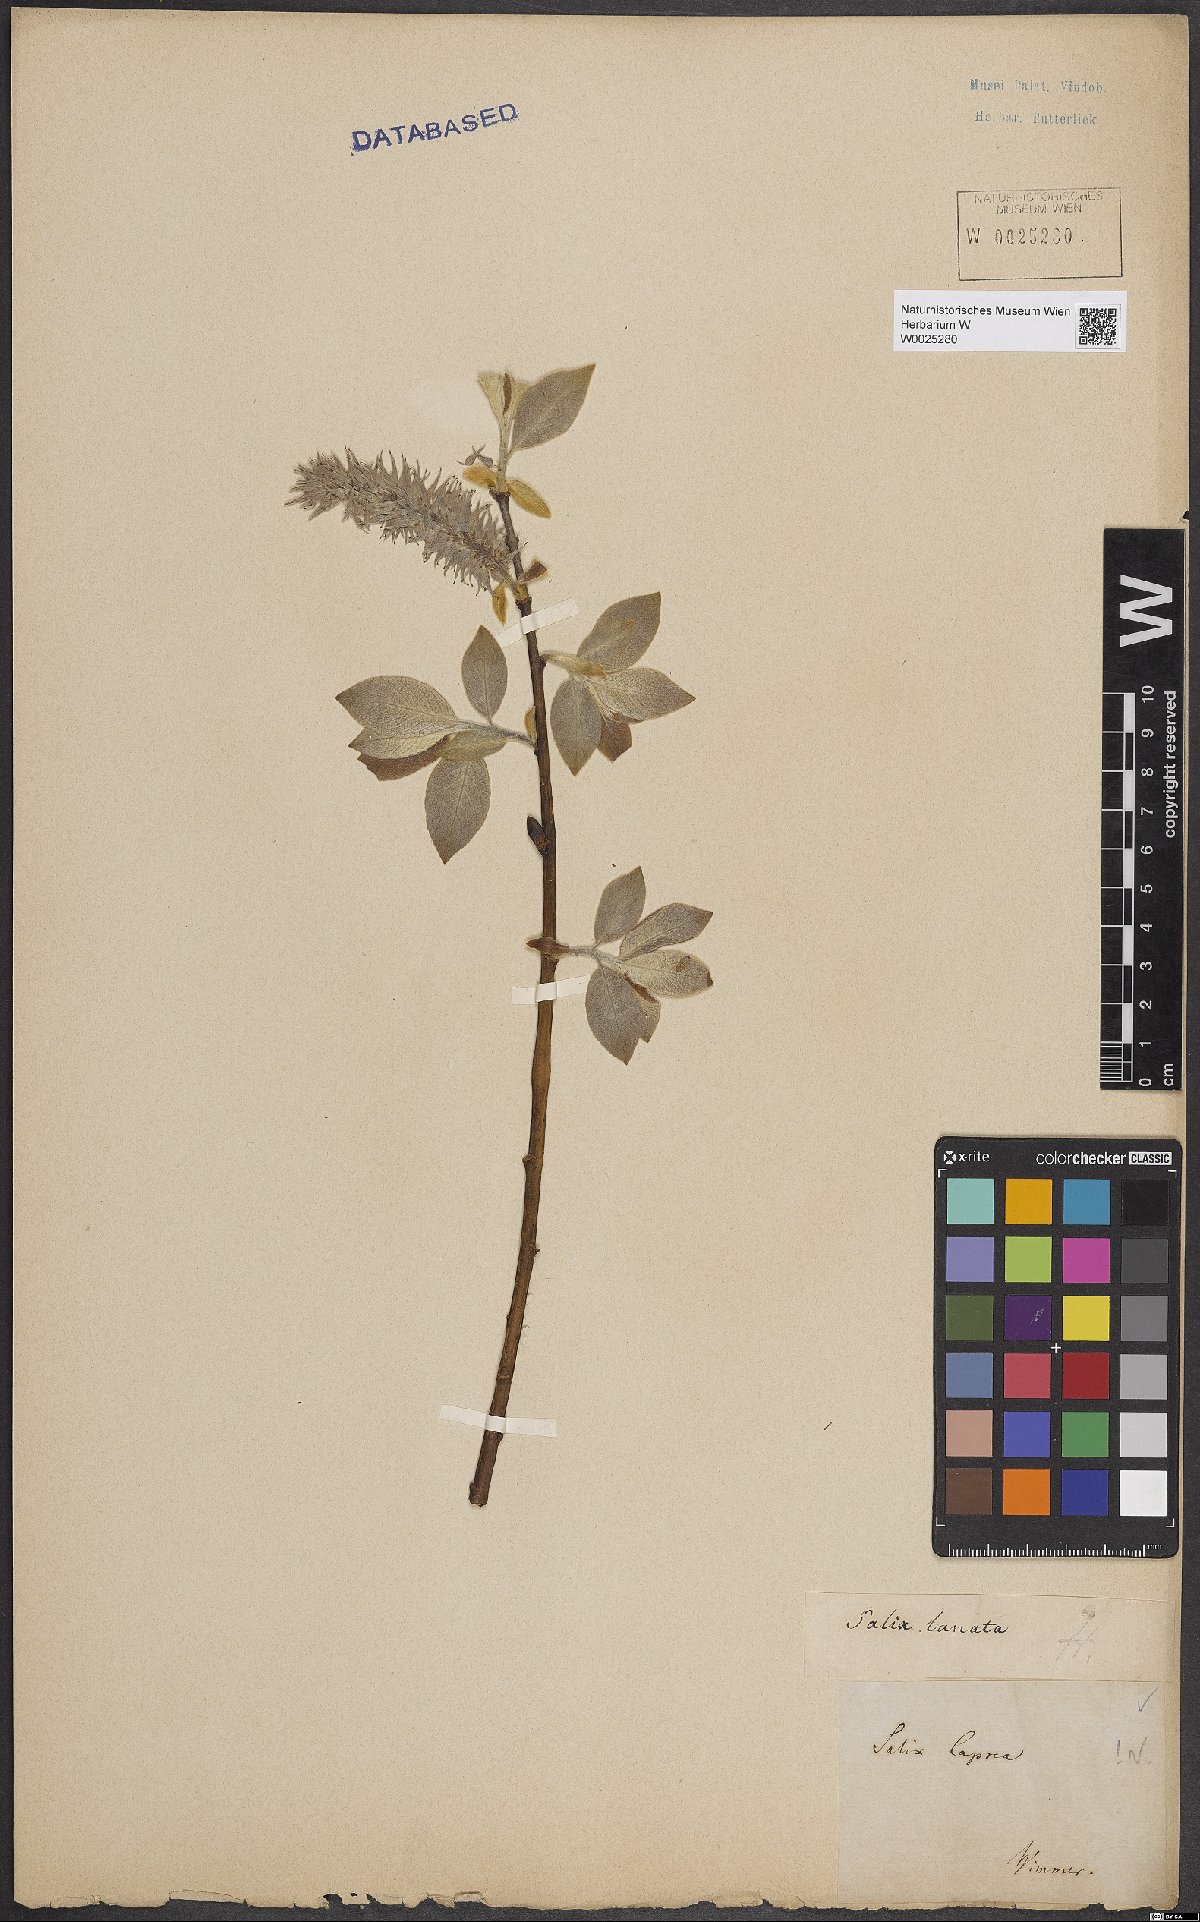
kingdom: Plantae
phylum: Tracheophyta
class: Magnoliopsida
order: Malpighiales
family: Salicaceae
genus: Salix
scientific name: Salix caprea
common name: Goat willow
